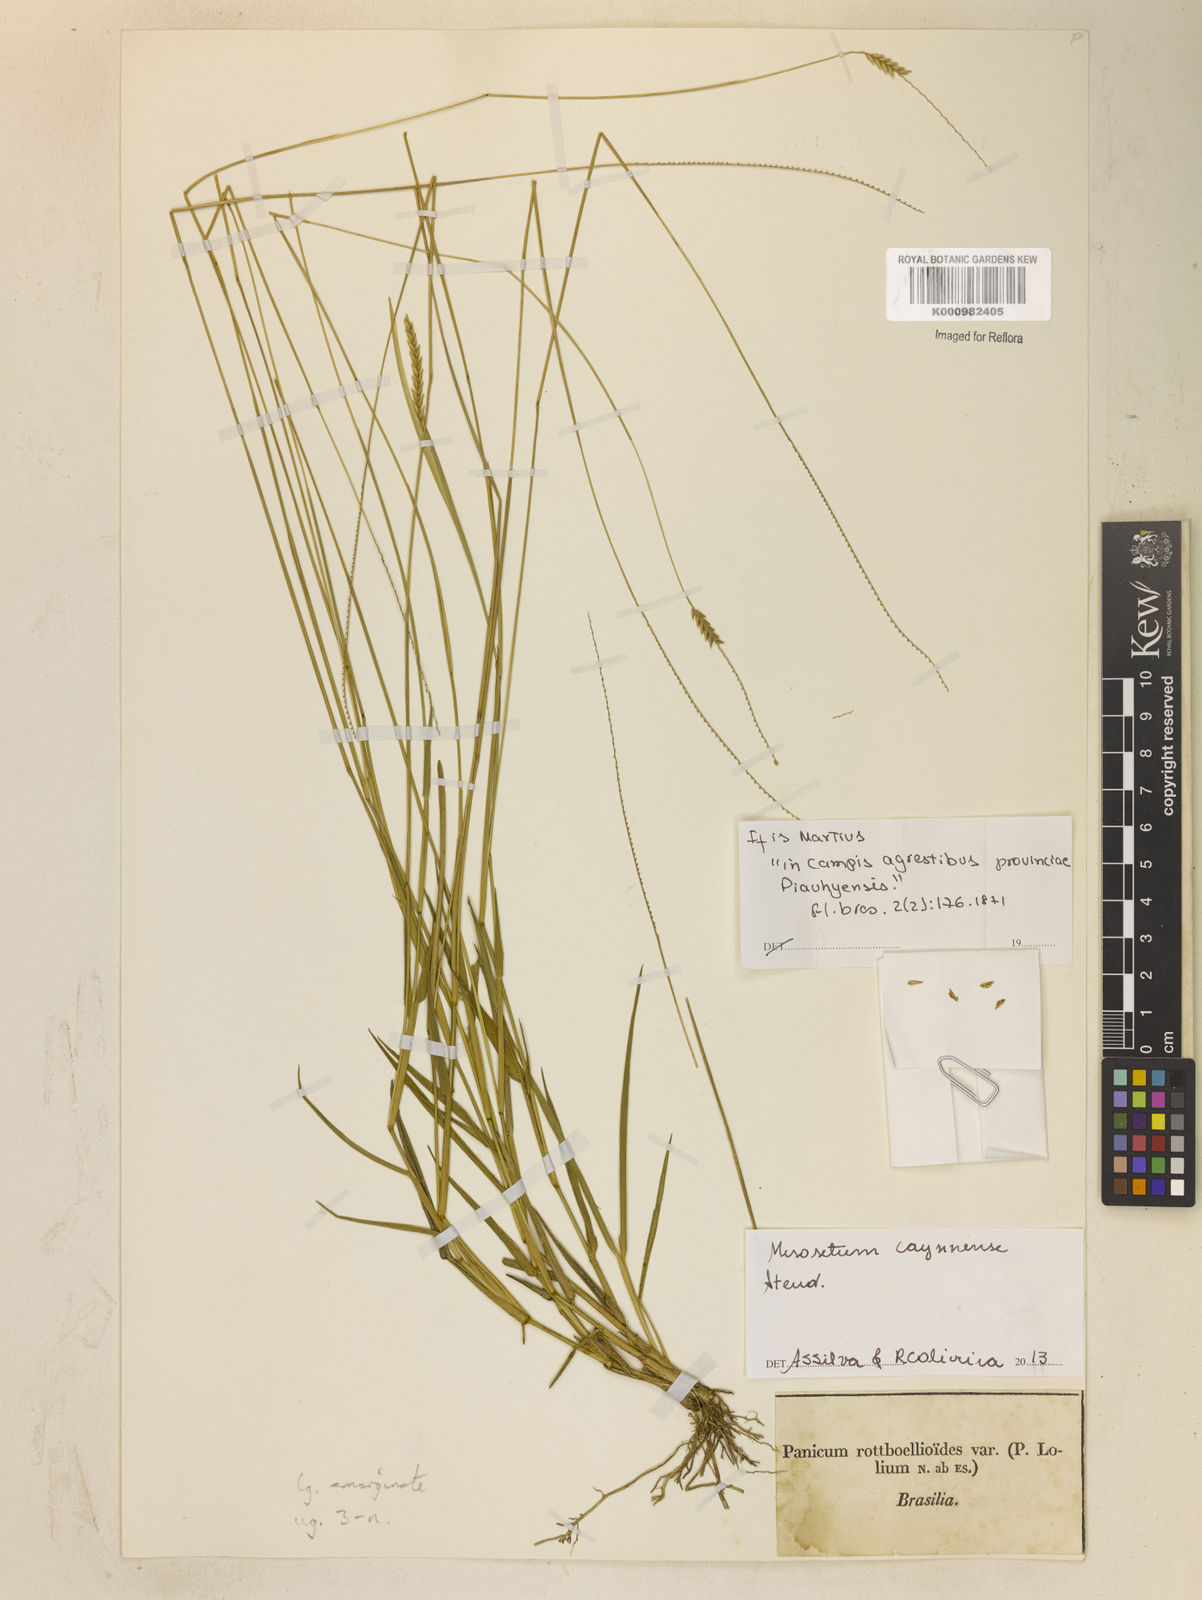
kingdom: Plantae
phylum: Tracheophyta
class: Liliopsida
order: Poales
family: Poaceae
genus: Mesosetum
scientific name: Mesosetum cayennense
